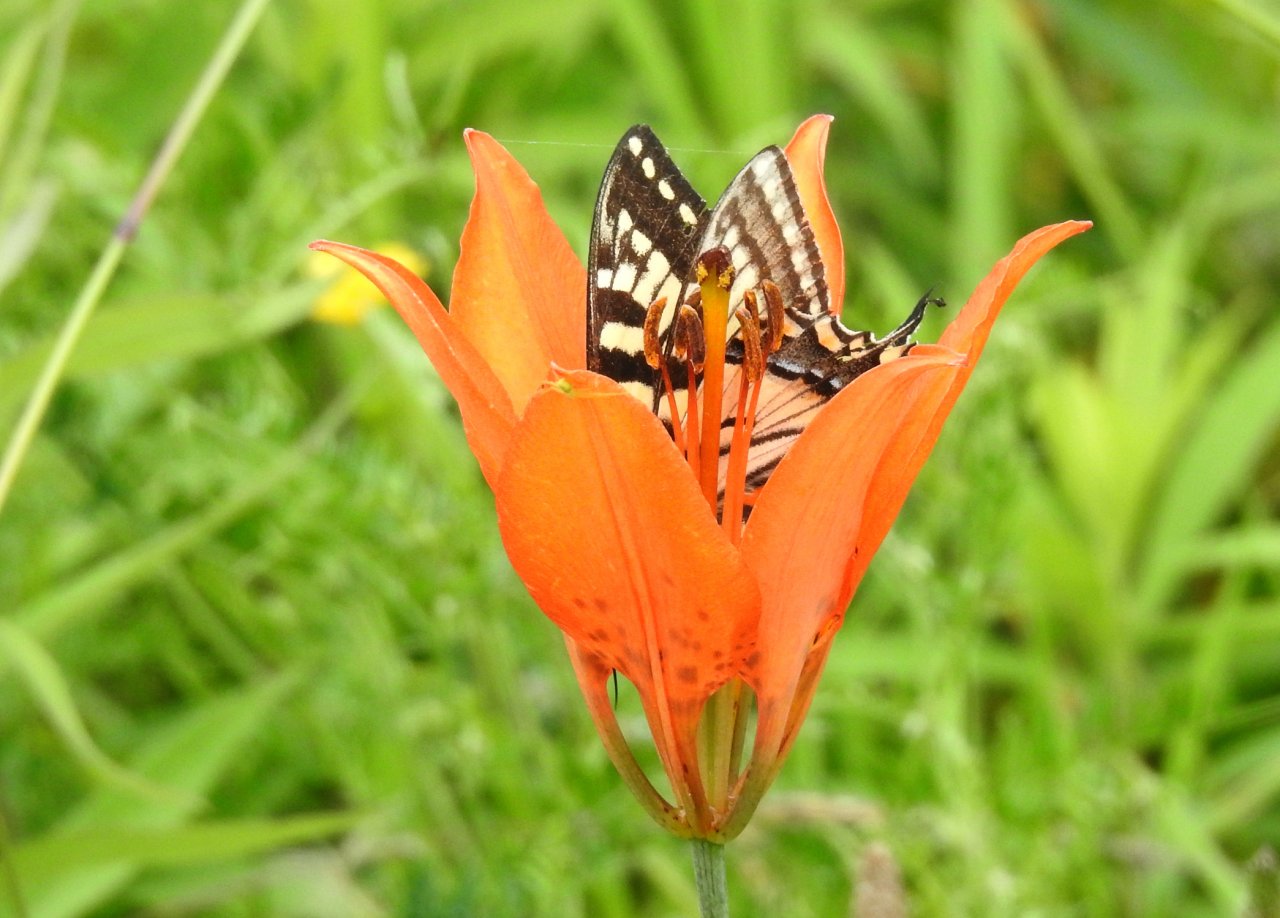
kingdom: Animalia
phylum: Arthropoda
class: Insecta
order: Lepidoptera
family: Papilionidae
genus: Pterourus
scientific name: Pterourus
